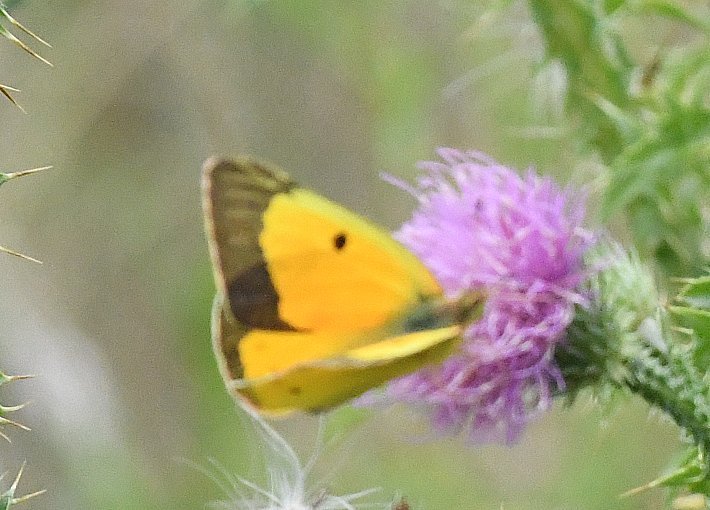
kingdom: Animalia
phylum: Arthropoda
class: Insecta
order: Lepidoptera
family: Pieridae
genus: Colias
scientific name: Colias eurytheme
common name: Orange Sulphur
